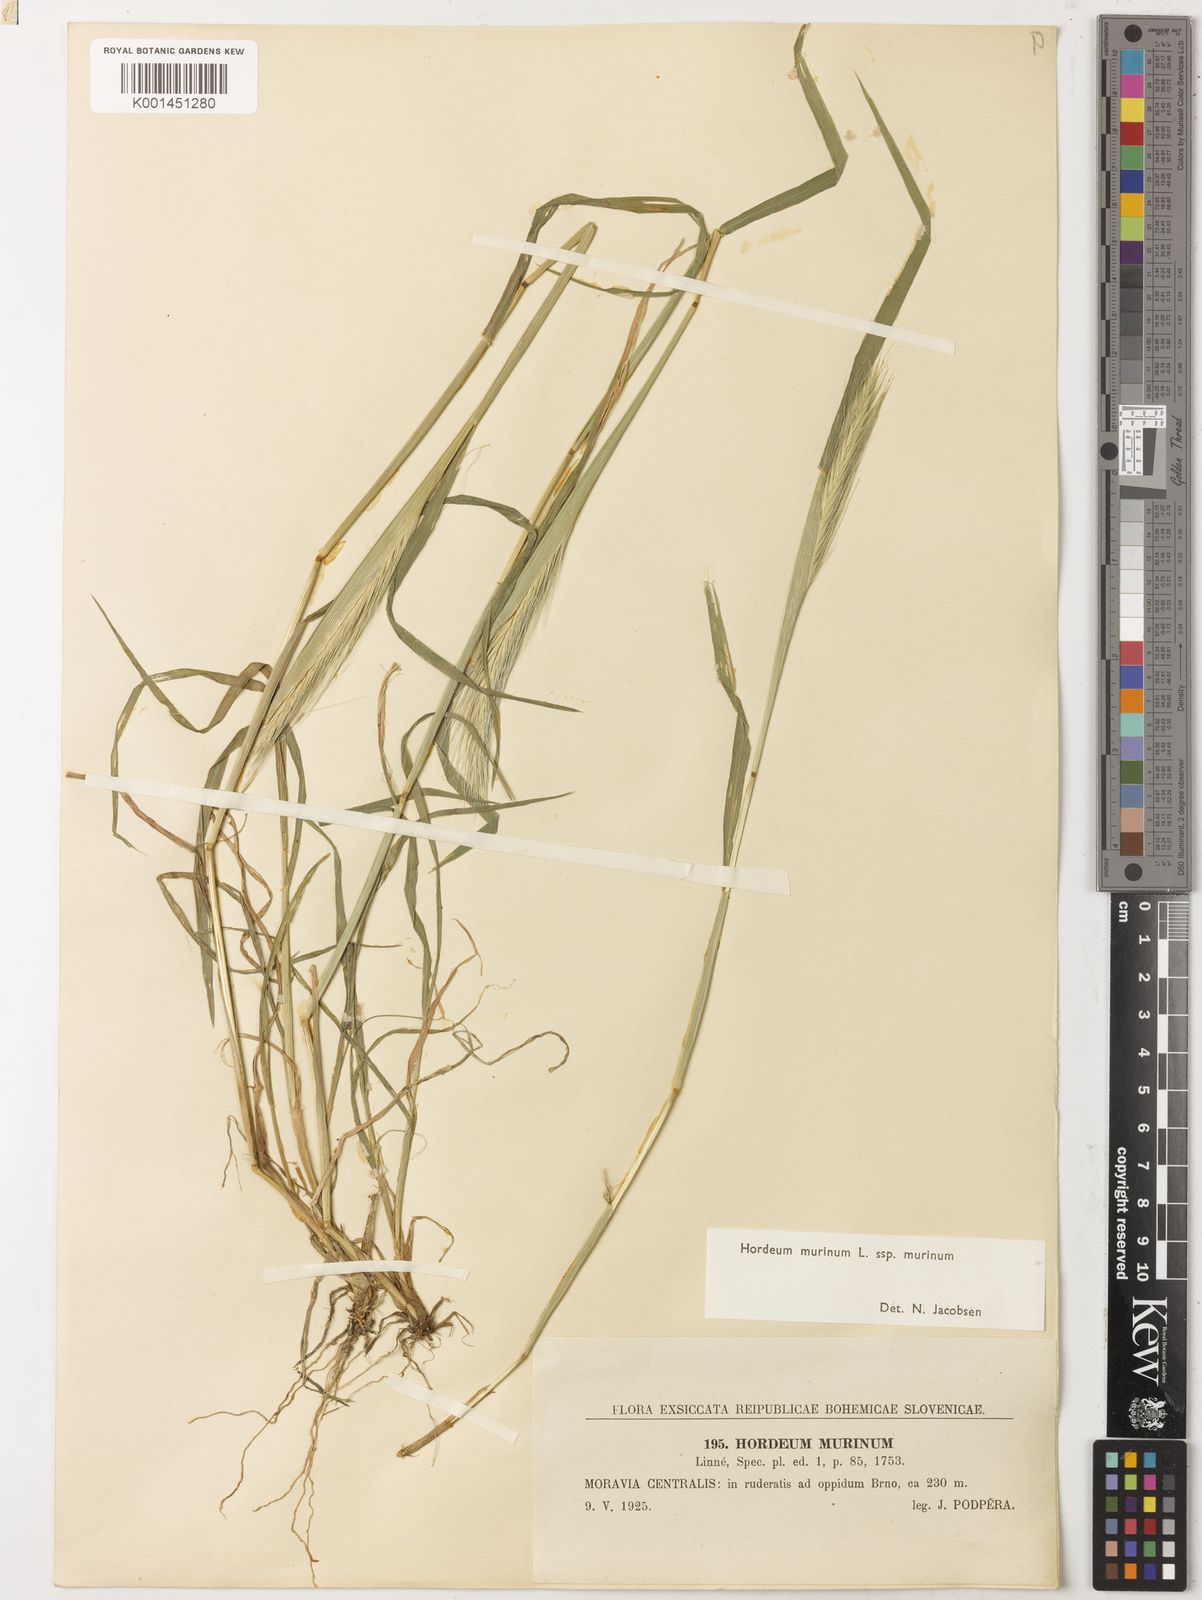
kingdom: Plantae
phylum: Tracheophyta
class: Liliopsida
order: Poales
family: Poaceae
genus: Hordeum
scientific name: Hordeum murinum
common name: Wall barley
